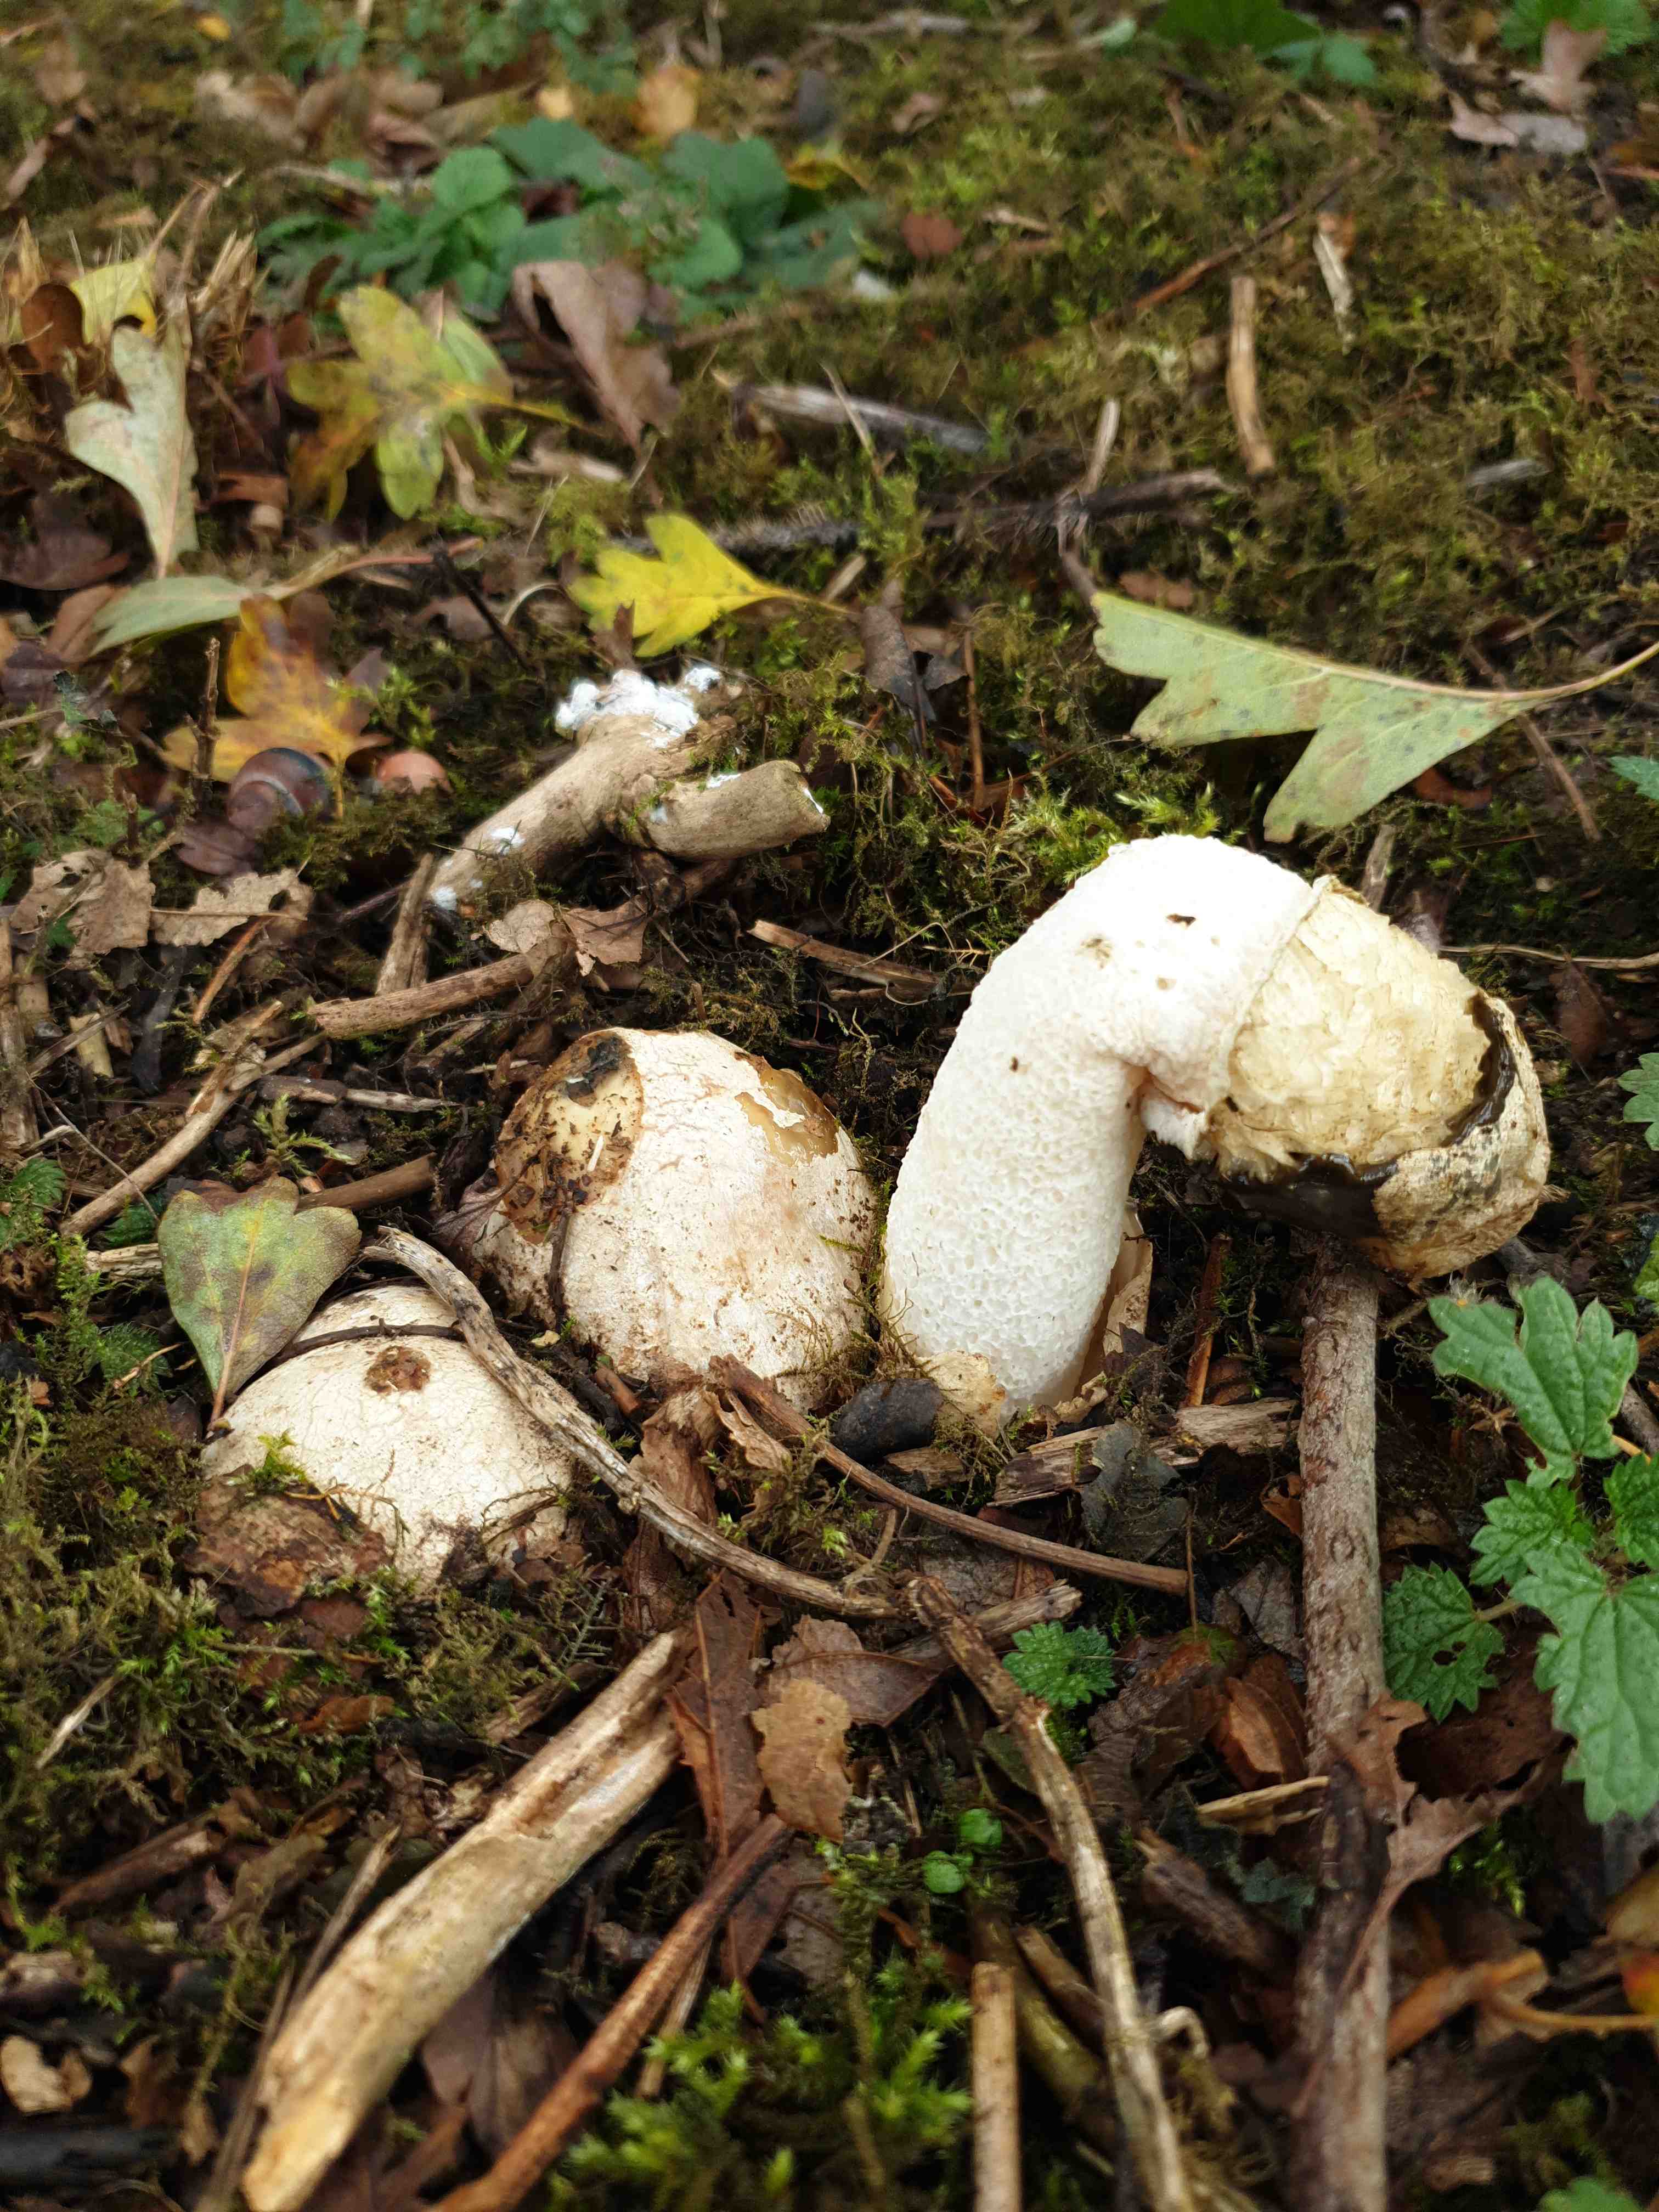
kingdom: Fungi
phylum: Basidiomycota
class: Agaricomycetes
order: Phallales
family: Phallaceae
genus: Phallus
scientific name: Phallus impudicus
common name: almindelig stinksvamp
